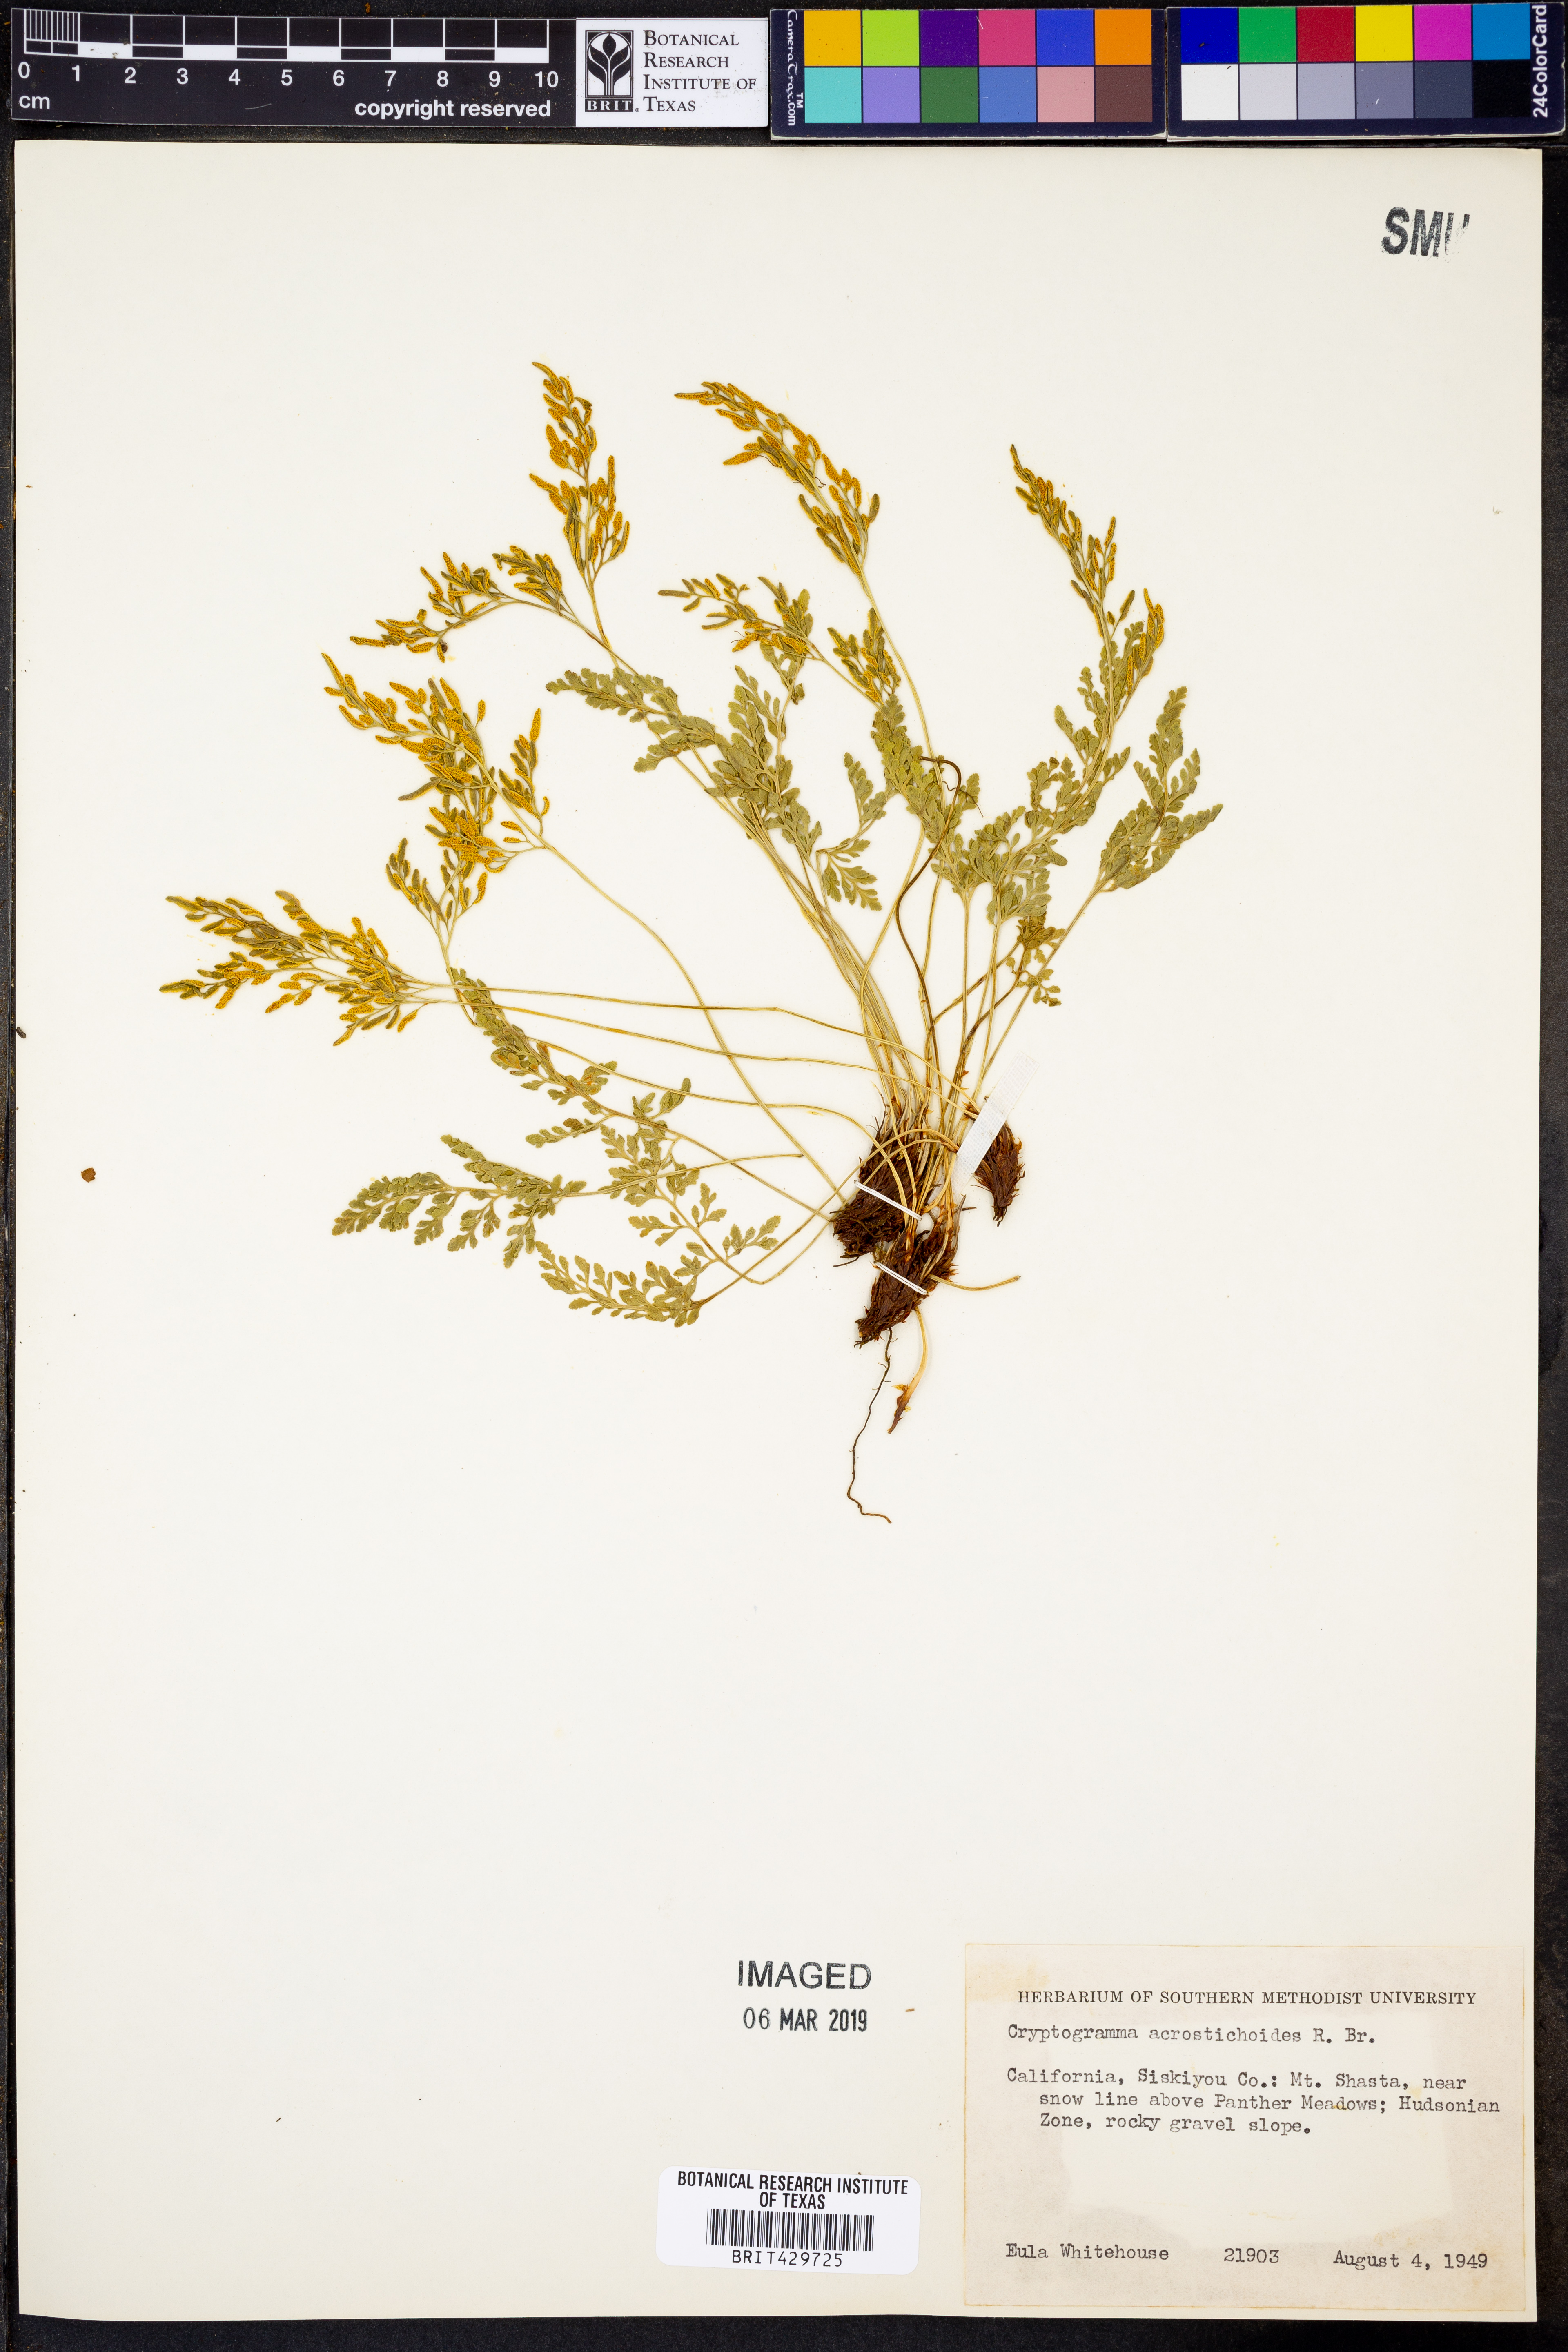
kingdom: Plantae
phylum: Tracheophyta
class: Polypodiopsida
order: Polypodiales
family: Pteridaceae
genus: Cryptogramma
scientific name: Cryptogramma acrostichoides
